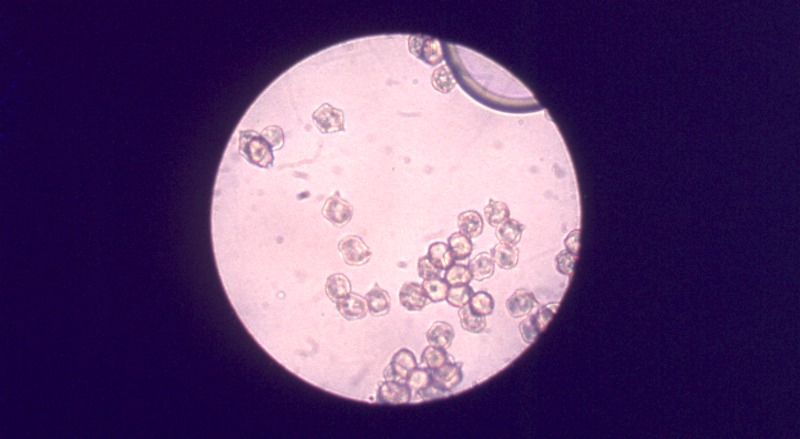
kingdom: Fungi
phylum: Basidiomycota
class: Agaricomycetes
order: Agaricales
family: Entolomataceae
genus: Entoloma
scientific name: Entoloma hirtipes
